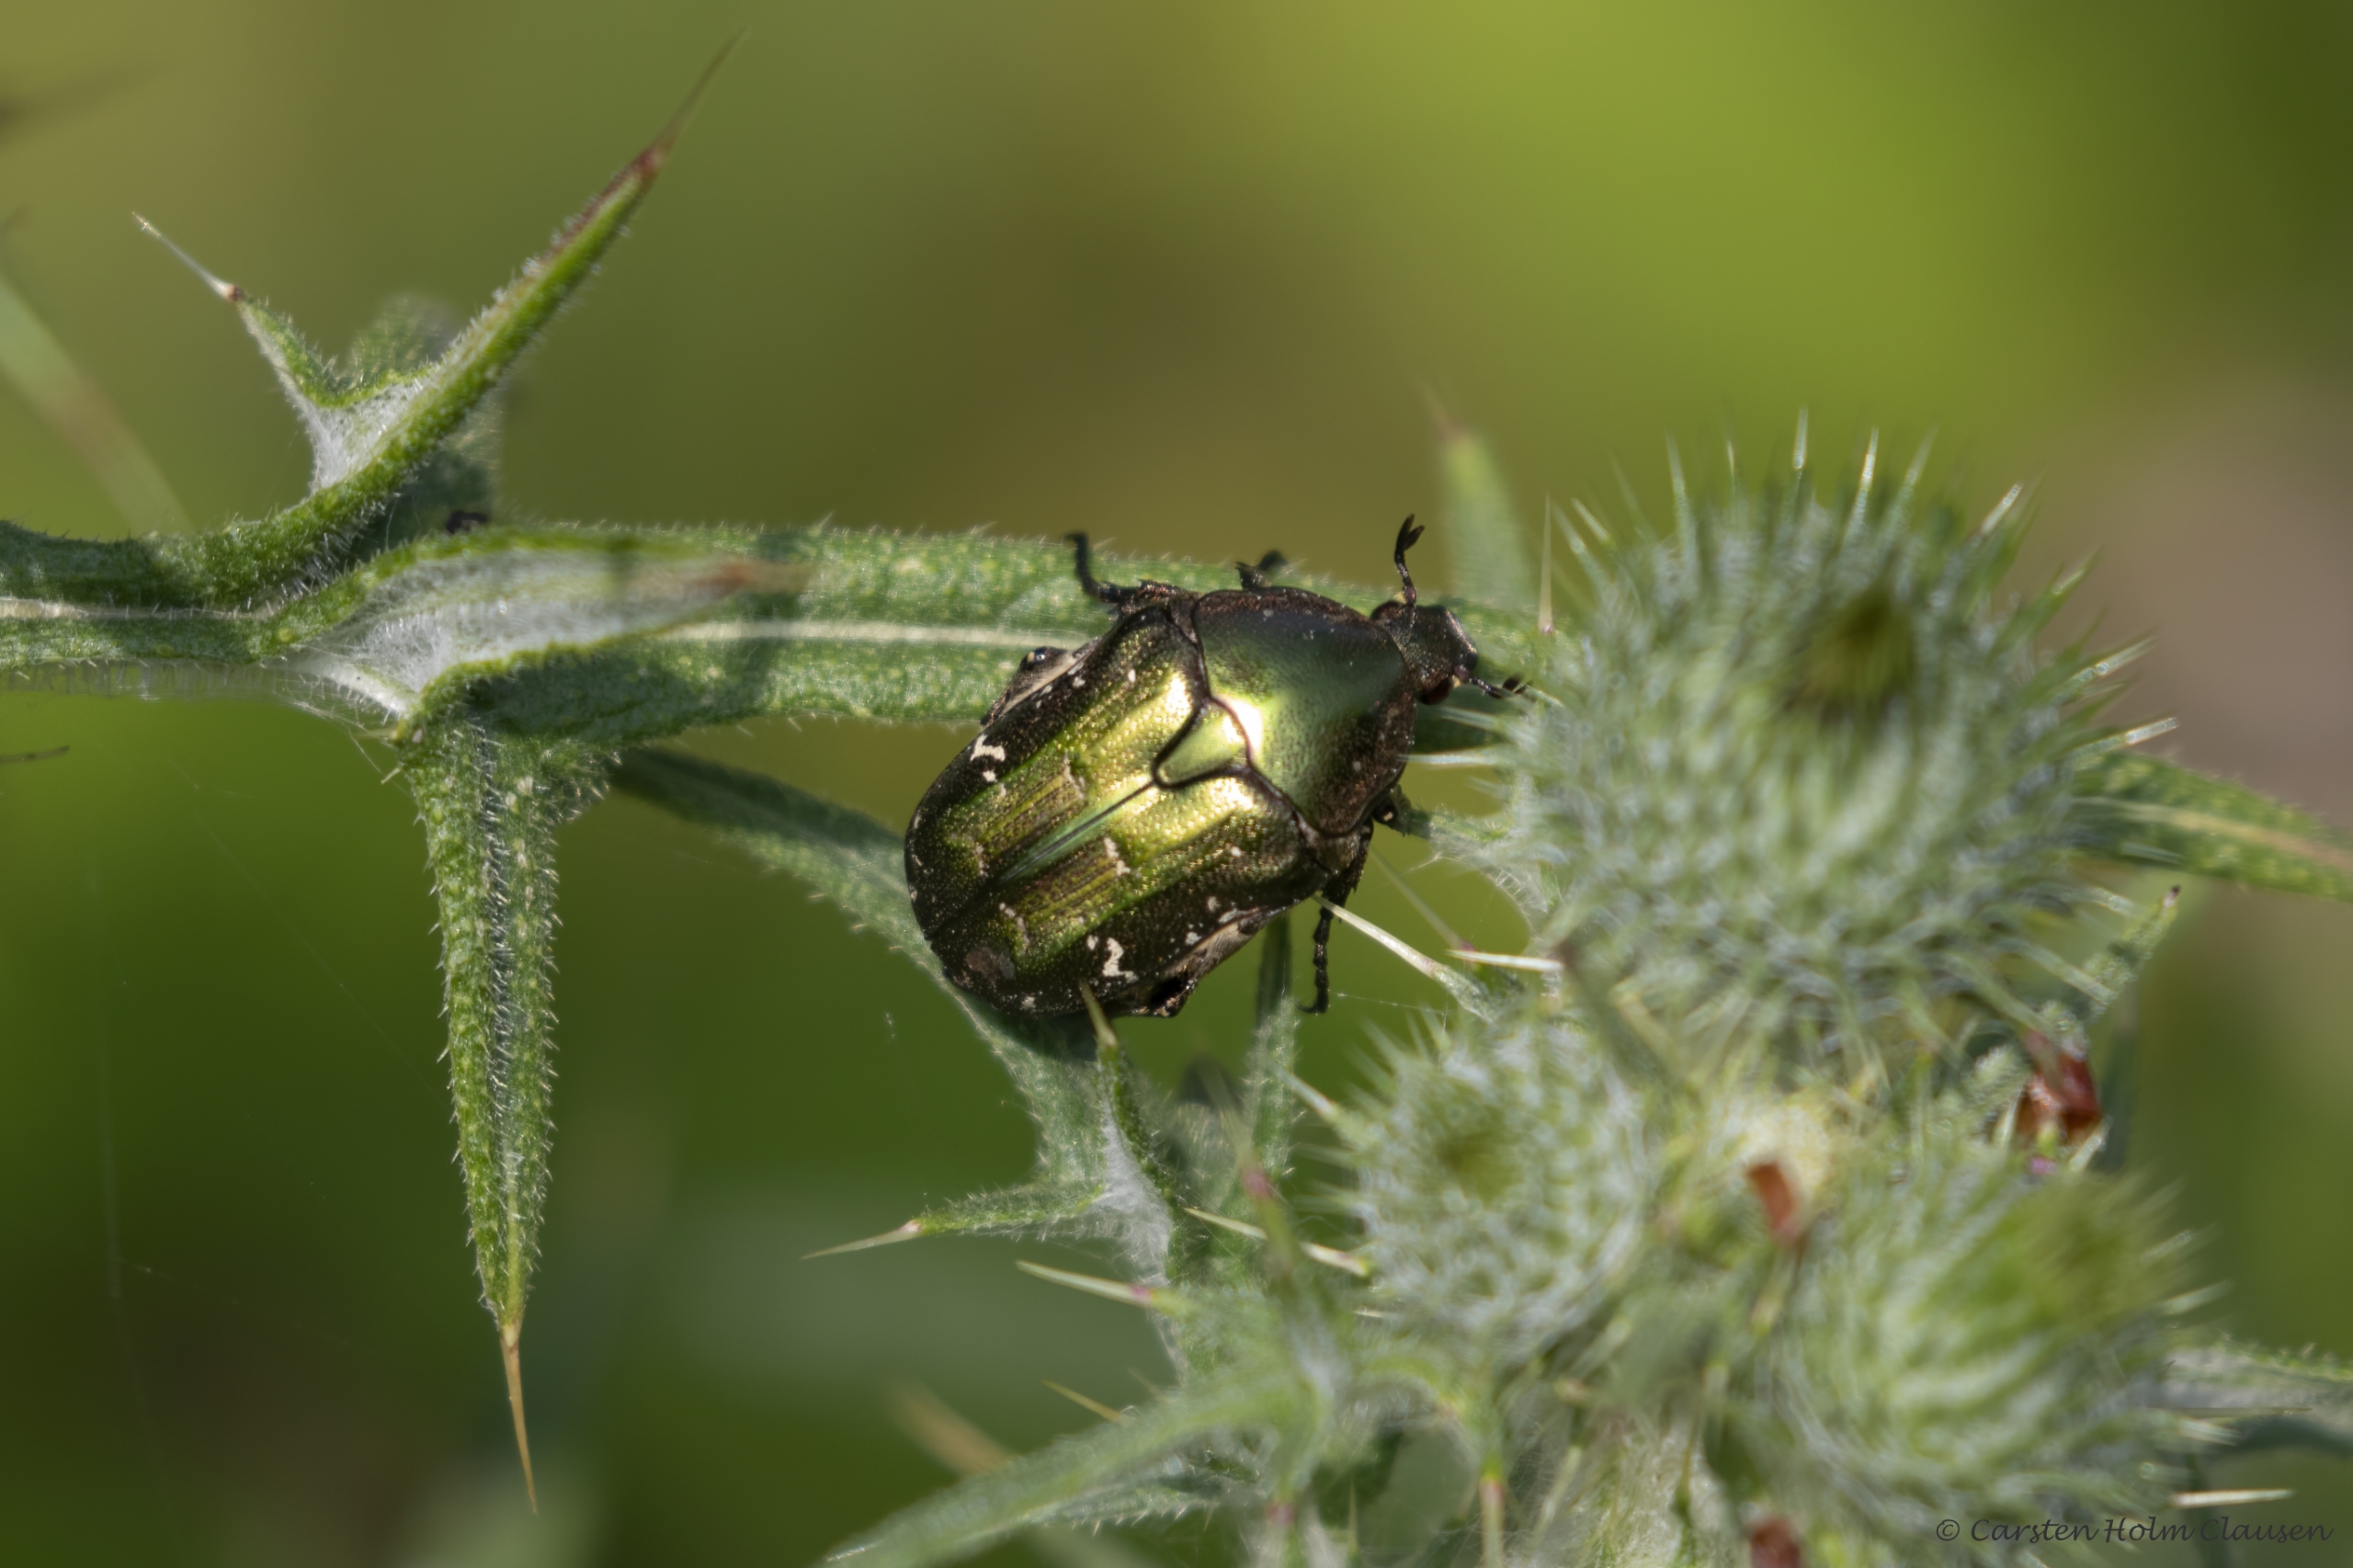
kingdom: Animalia
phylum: Arthropoda
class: Insecta
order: Coleoptera
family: Scarabaeidae
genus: Protaetia
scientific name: Protaetia cuprea
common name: Kobberguldbasse
